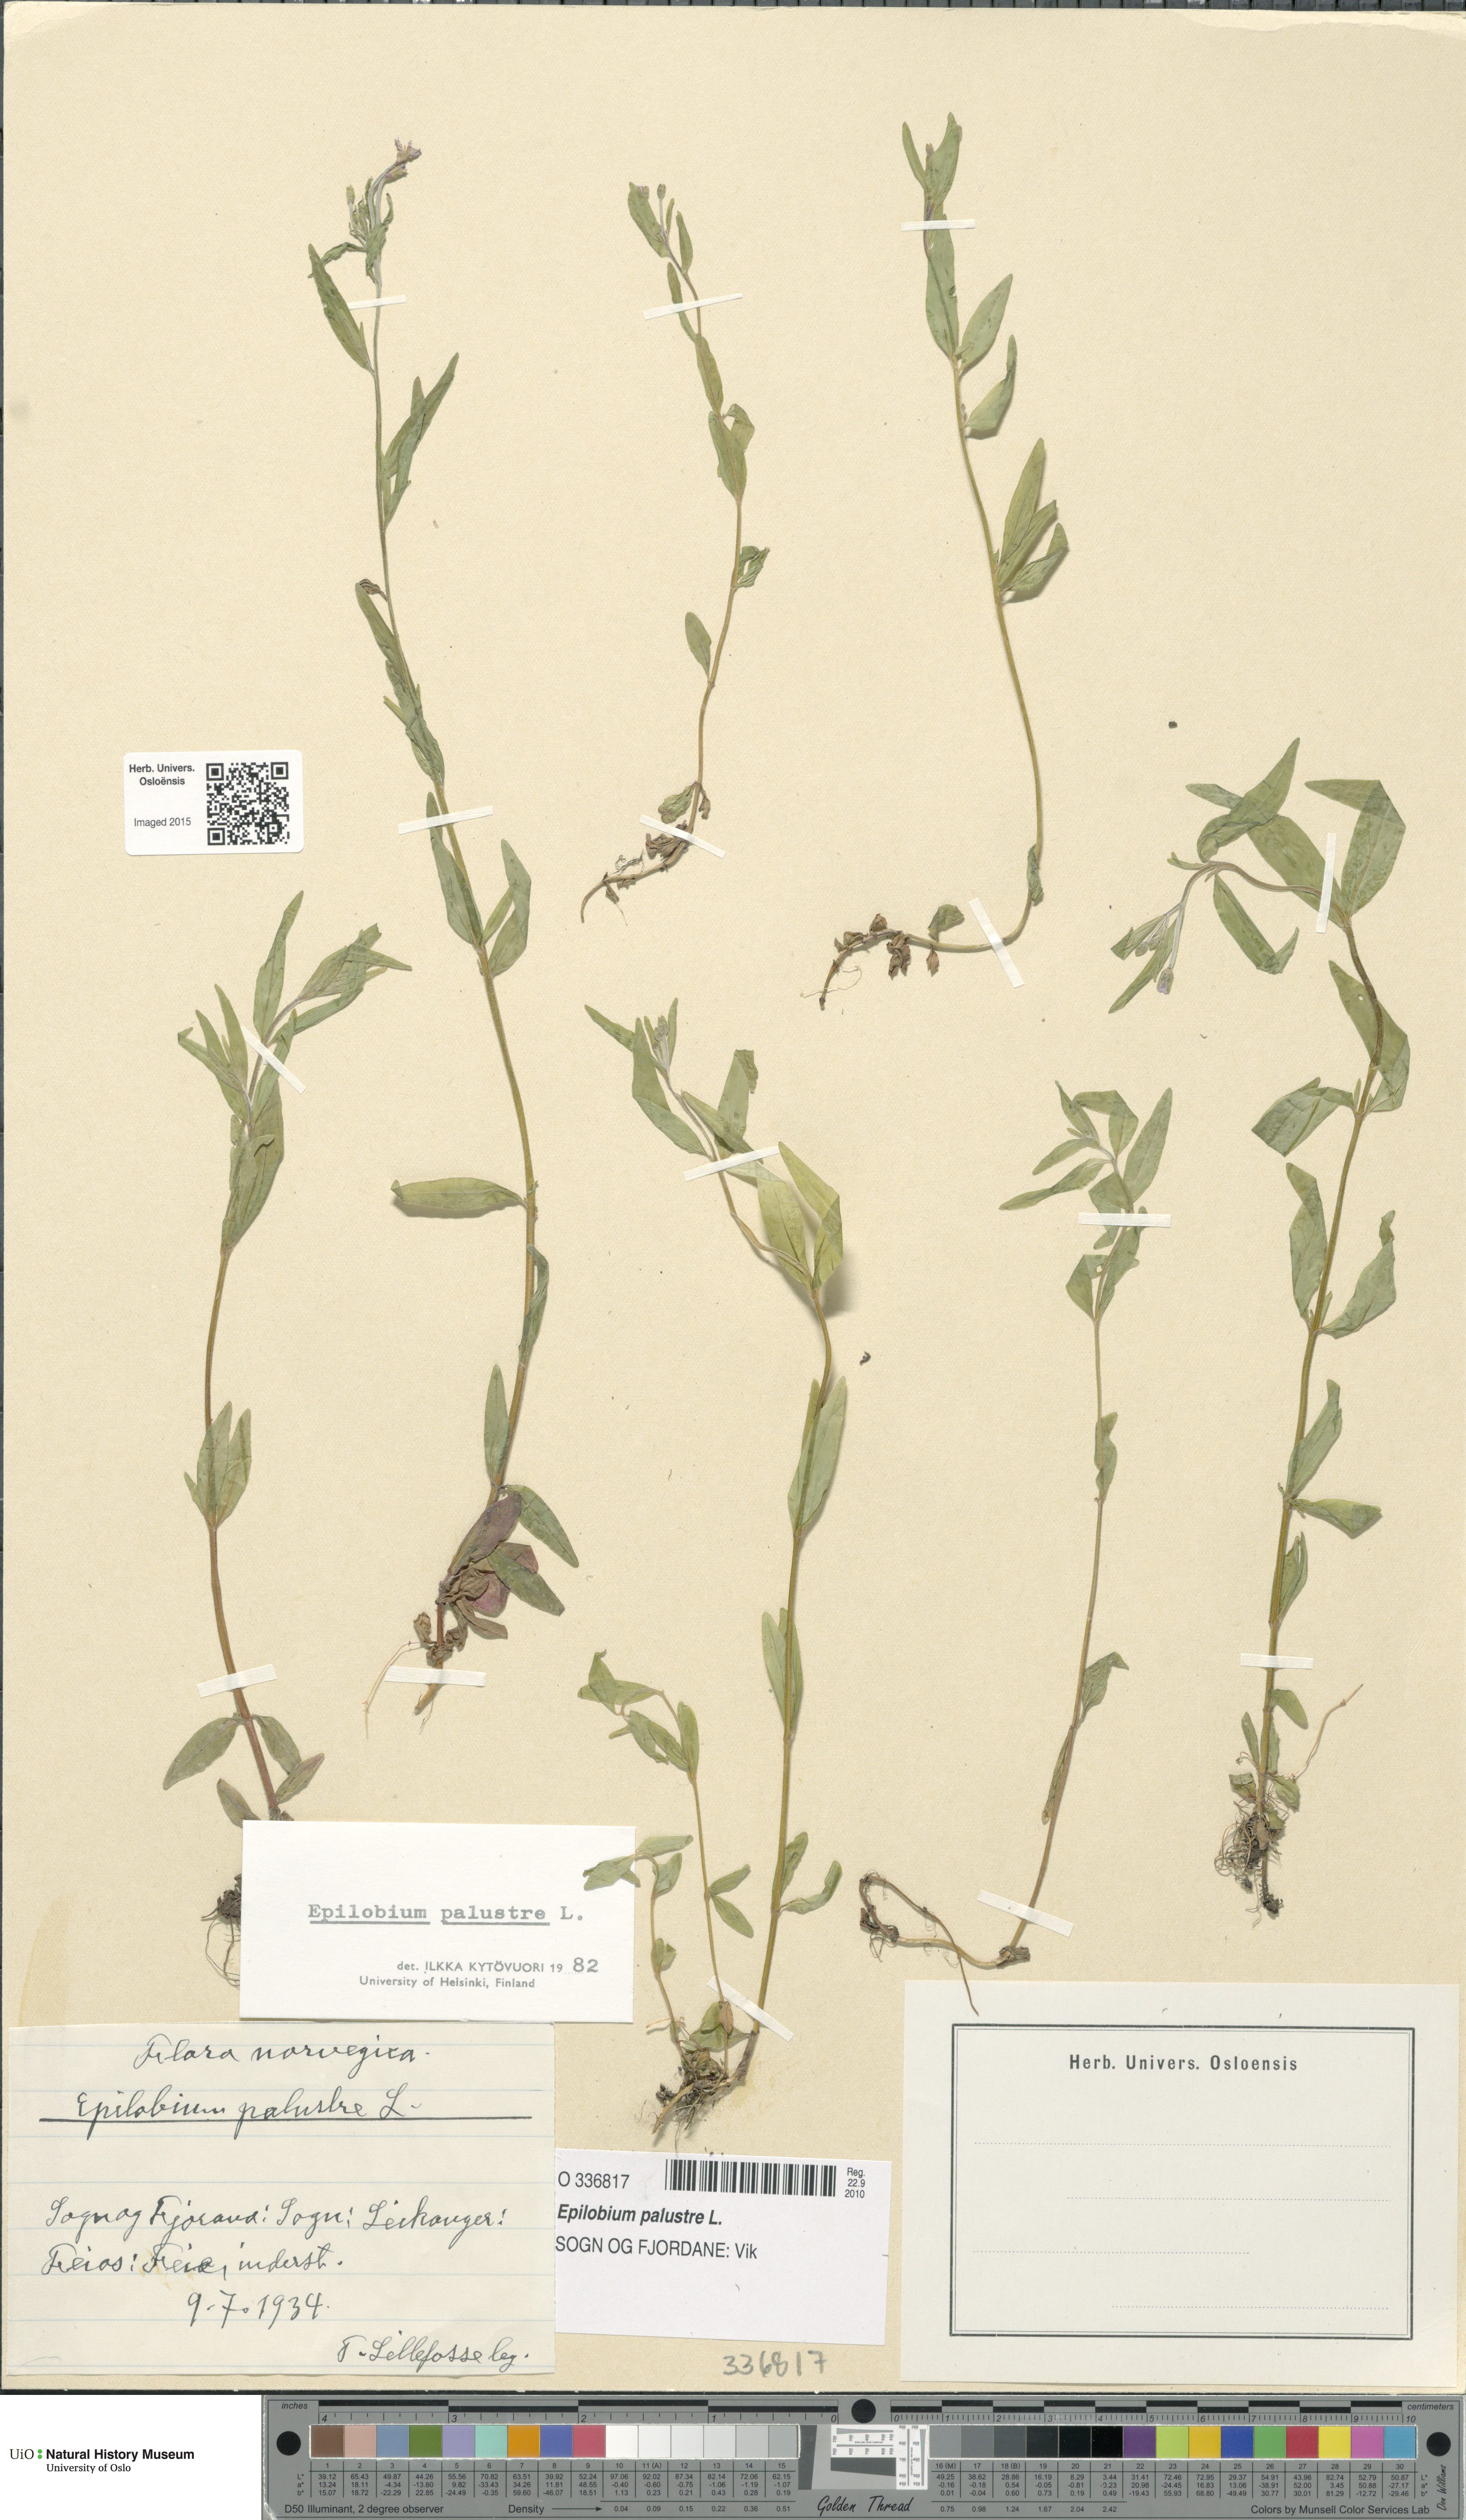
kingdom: Plantae
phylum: Tracheophyta
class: Magnoliopsida
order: Myrtales
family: Onagraceae
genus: Epilobium
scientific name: Epilobium palustre
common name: Marsh willowherb
